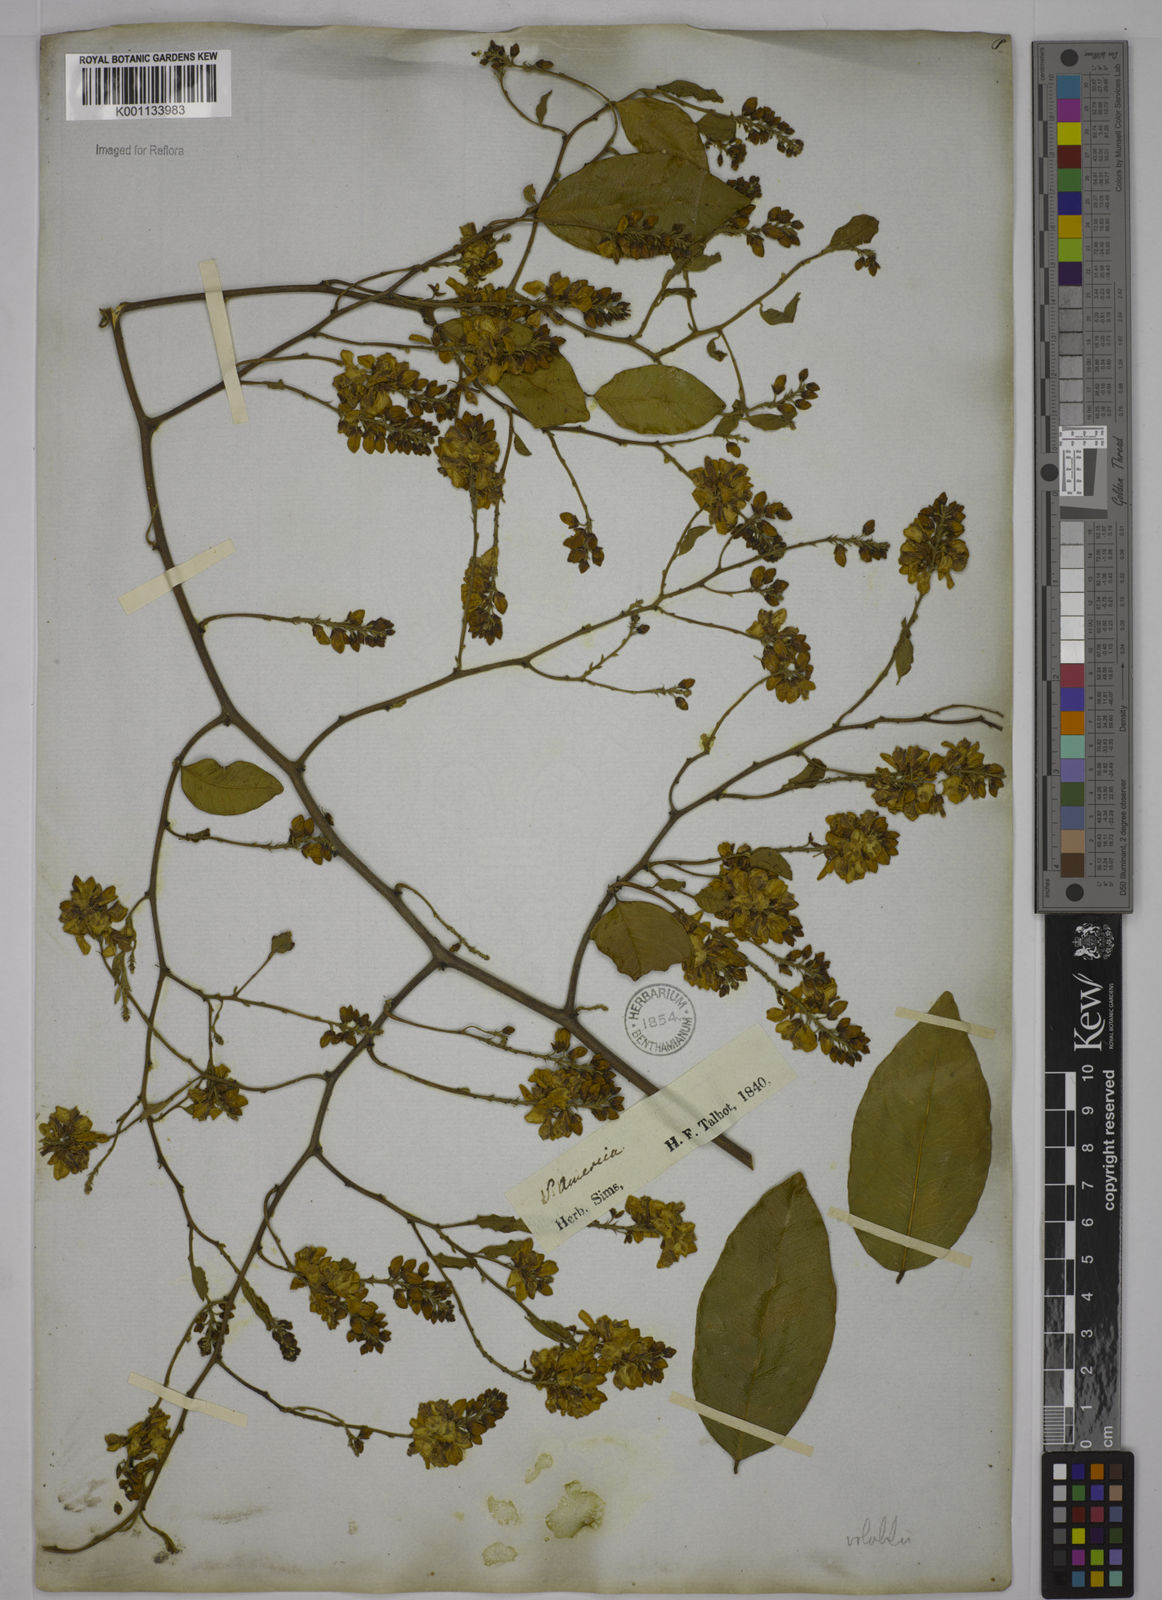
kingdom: Plantae
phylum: Tracheophyta
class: Magnoliopsida
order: Fabales
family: Polygalaceae
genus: Securidaca
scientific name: Securidaca diversifolia
